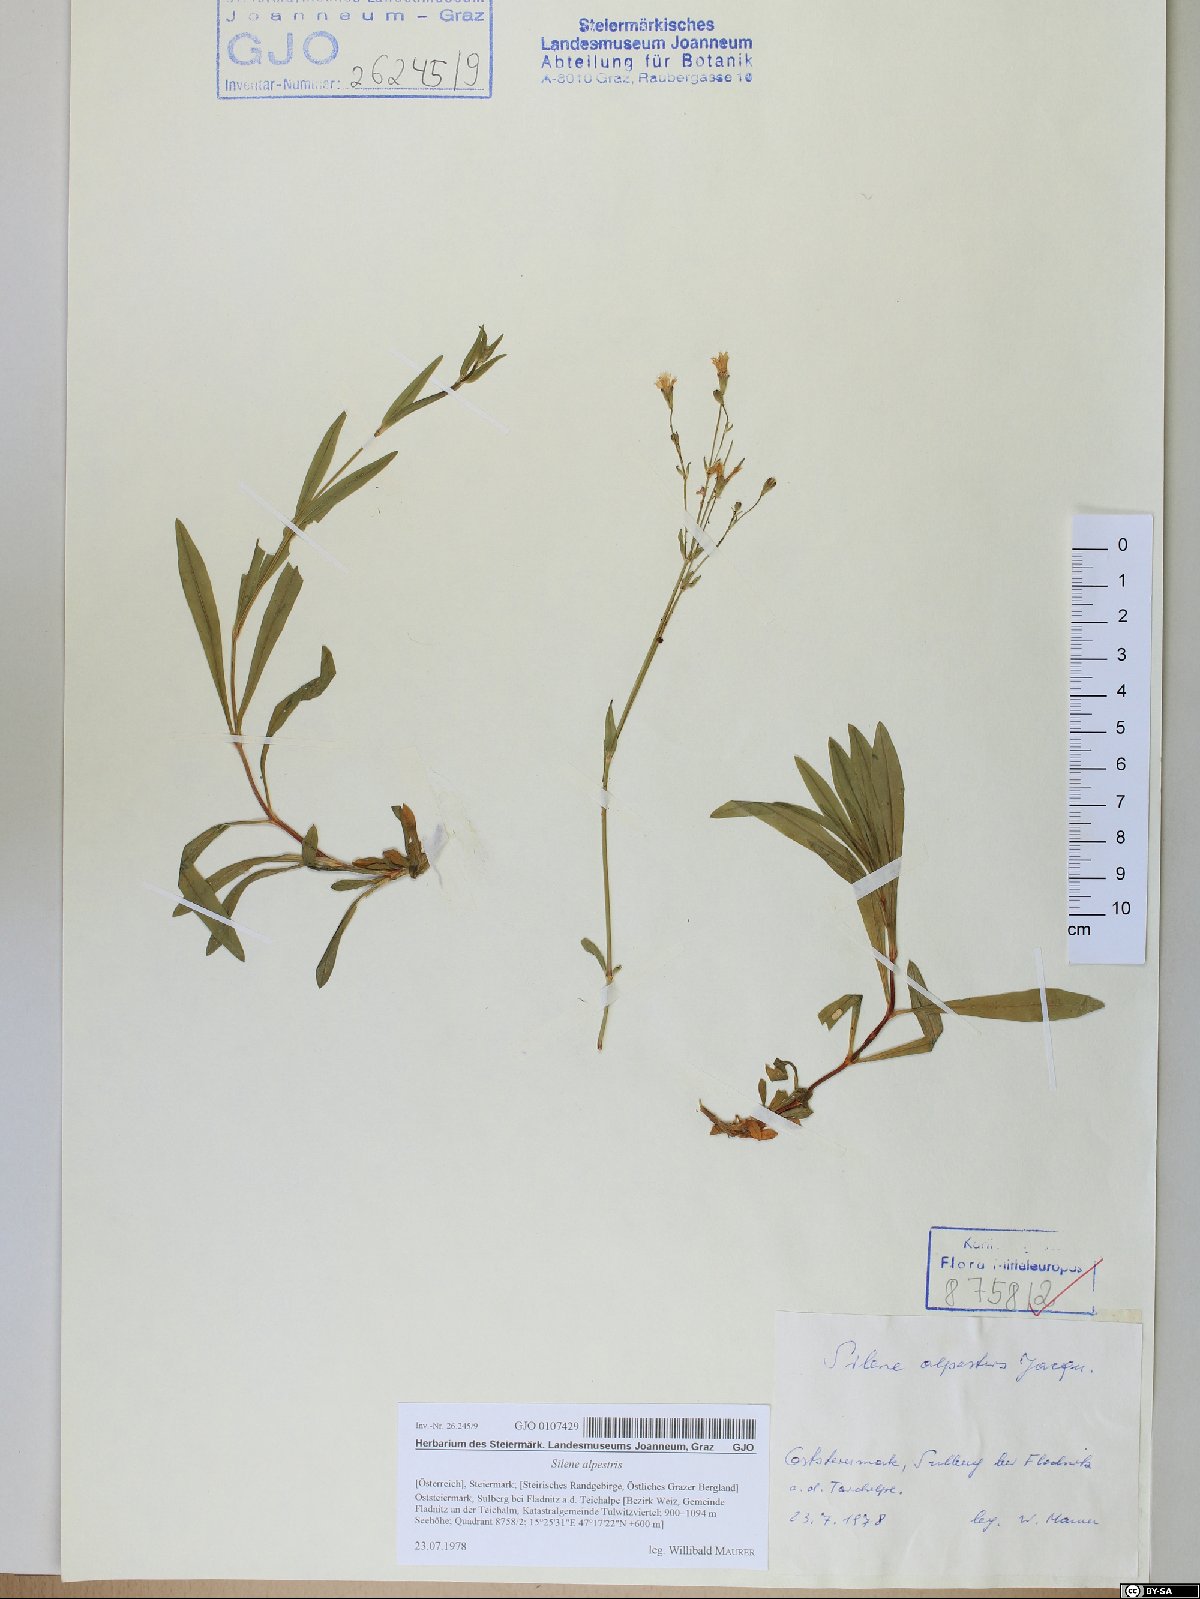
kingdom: Plantae
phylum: Tracheophyta
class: Magnoliopsida
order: Caryophyllales
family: Caryophyllaceae
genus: Heliosperma
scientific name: Heliosperma alpestre
